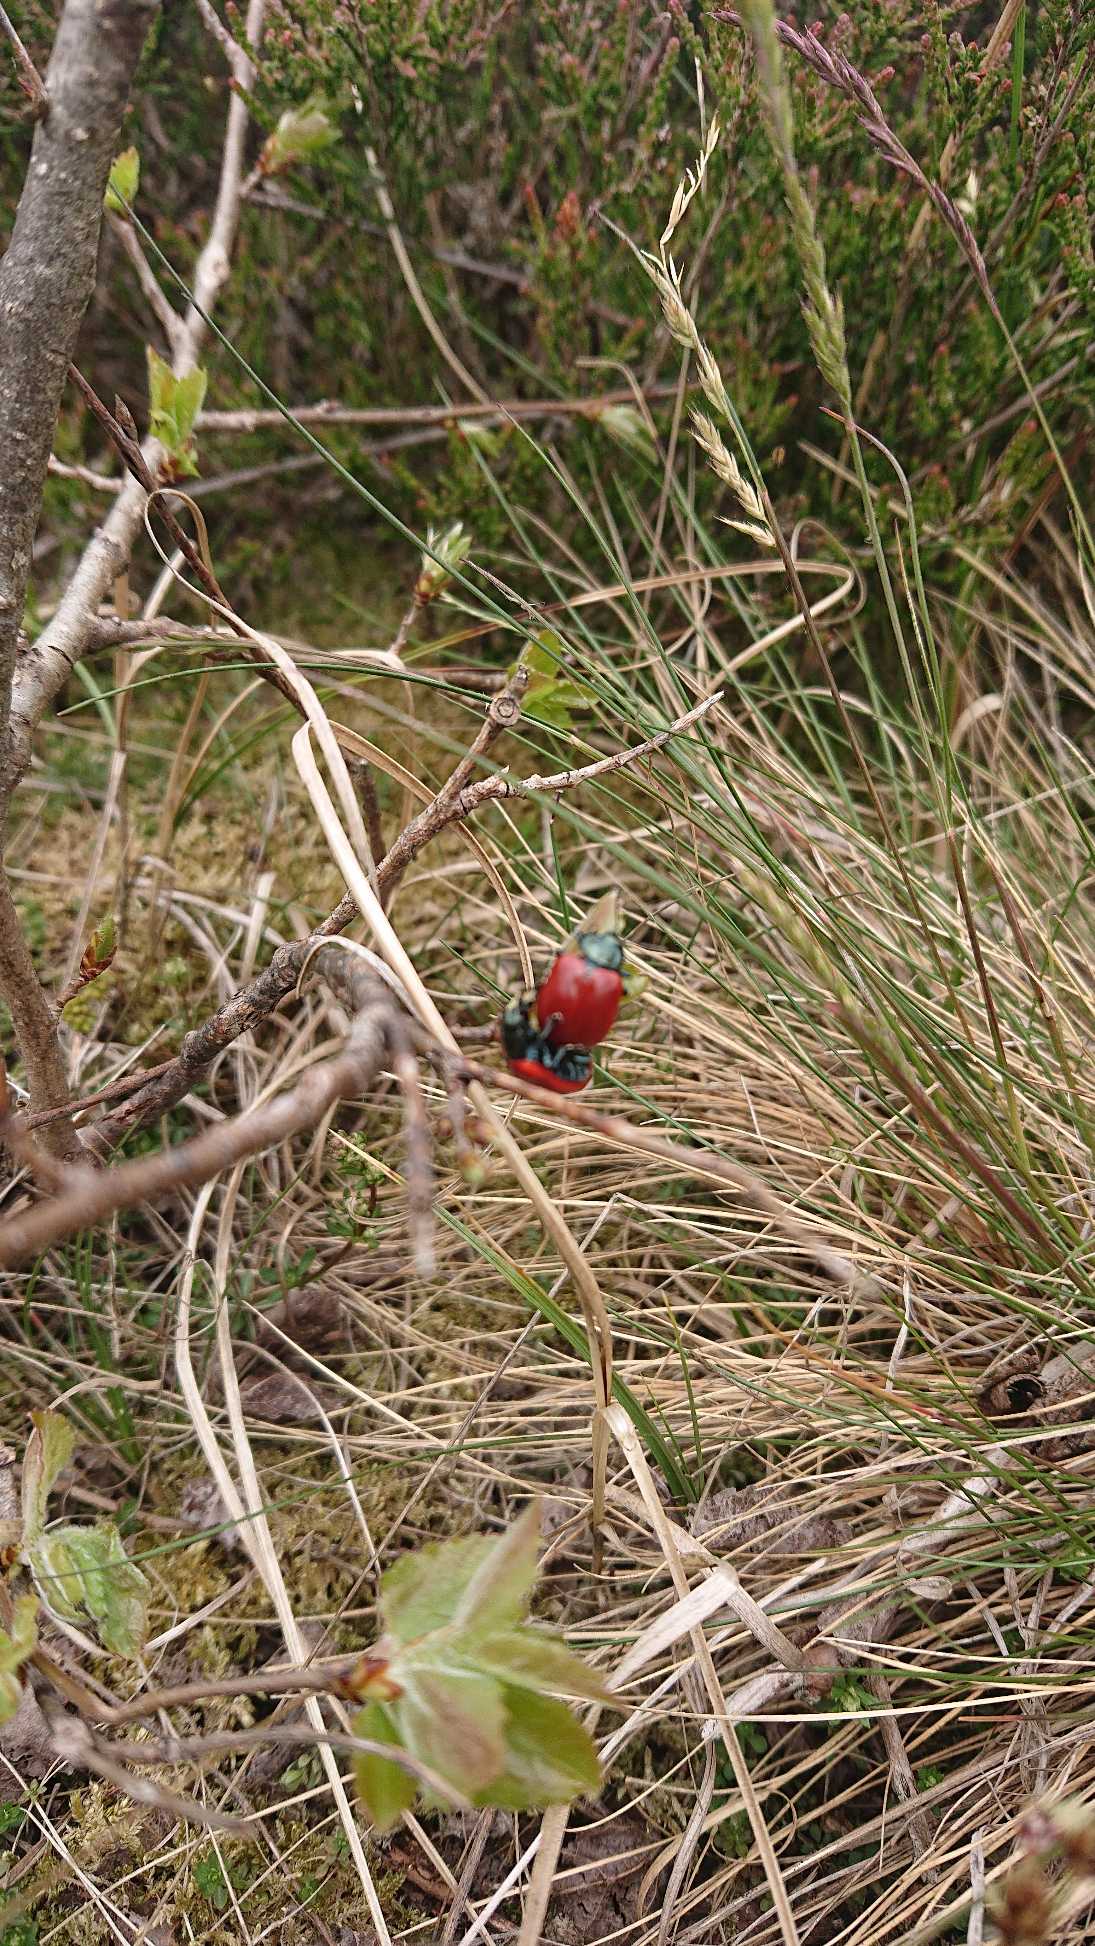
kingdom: Animalia
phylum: Arthropoda
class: Insecta
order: Coleoptera
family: Chrysomelidae
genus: Chrysomela
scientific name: Chrysomela populi
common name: Poppelbladbille
